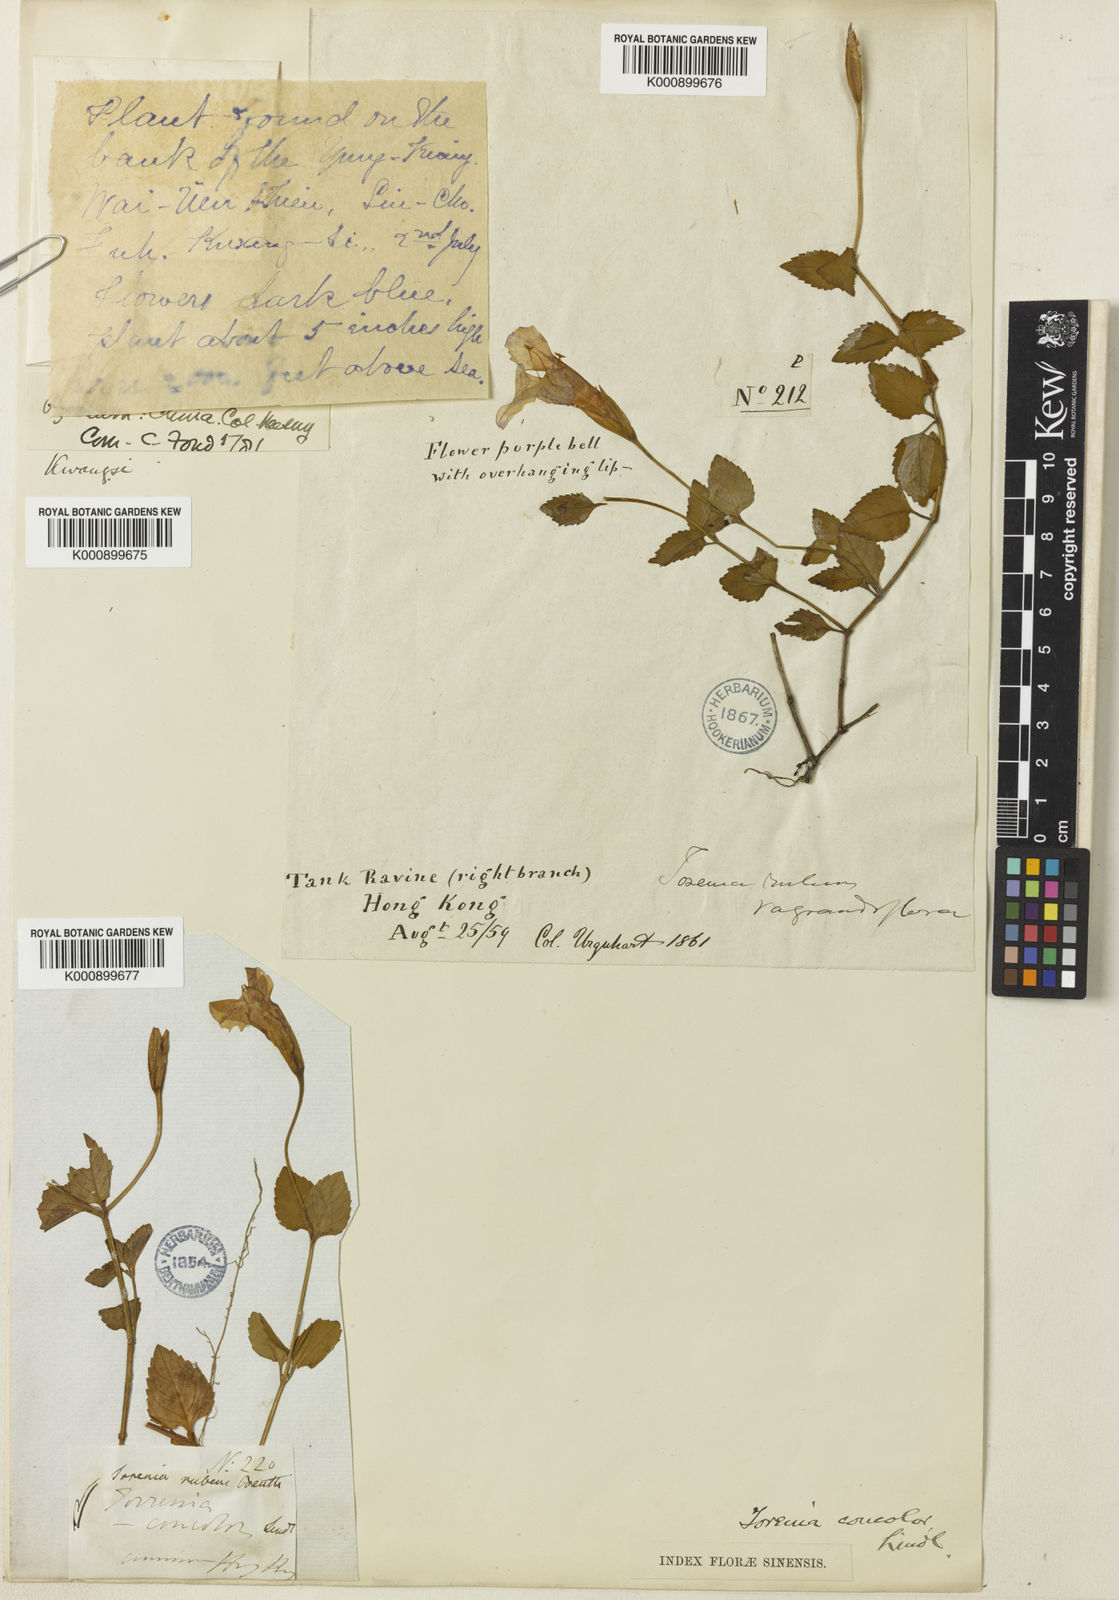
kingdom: Plantae
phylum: Tracheophyta
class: Magnoliopsida
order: Lamiales
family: Linderniaceae
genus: Torenia
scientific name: Torenia
